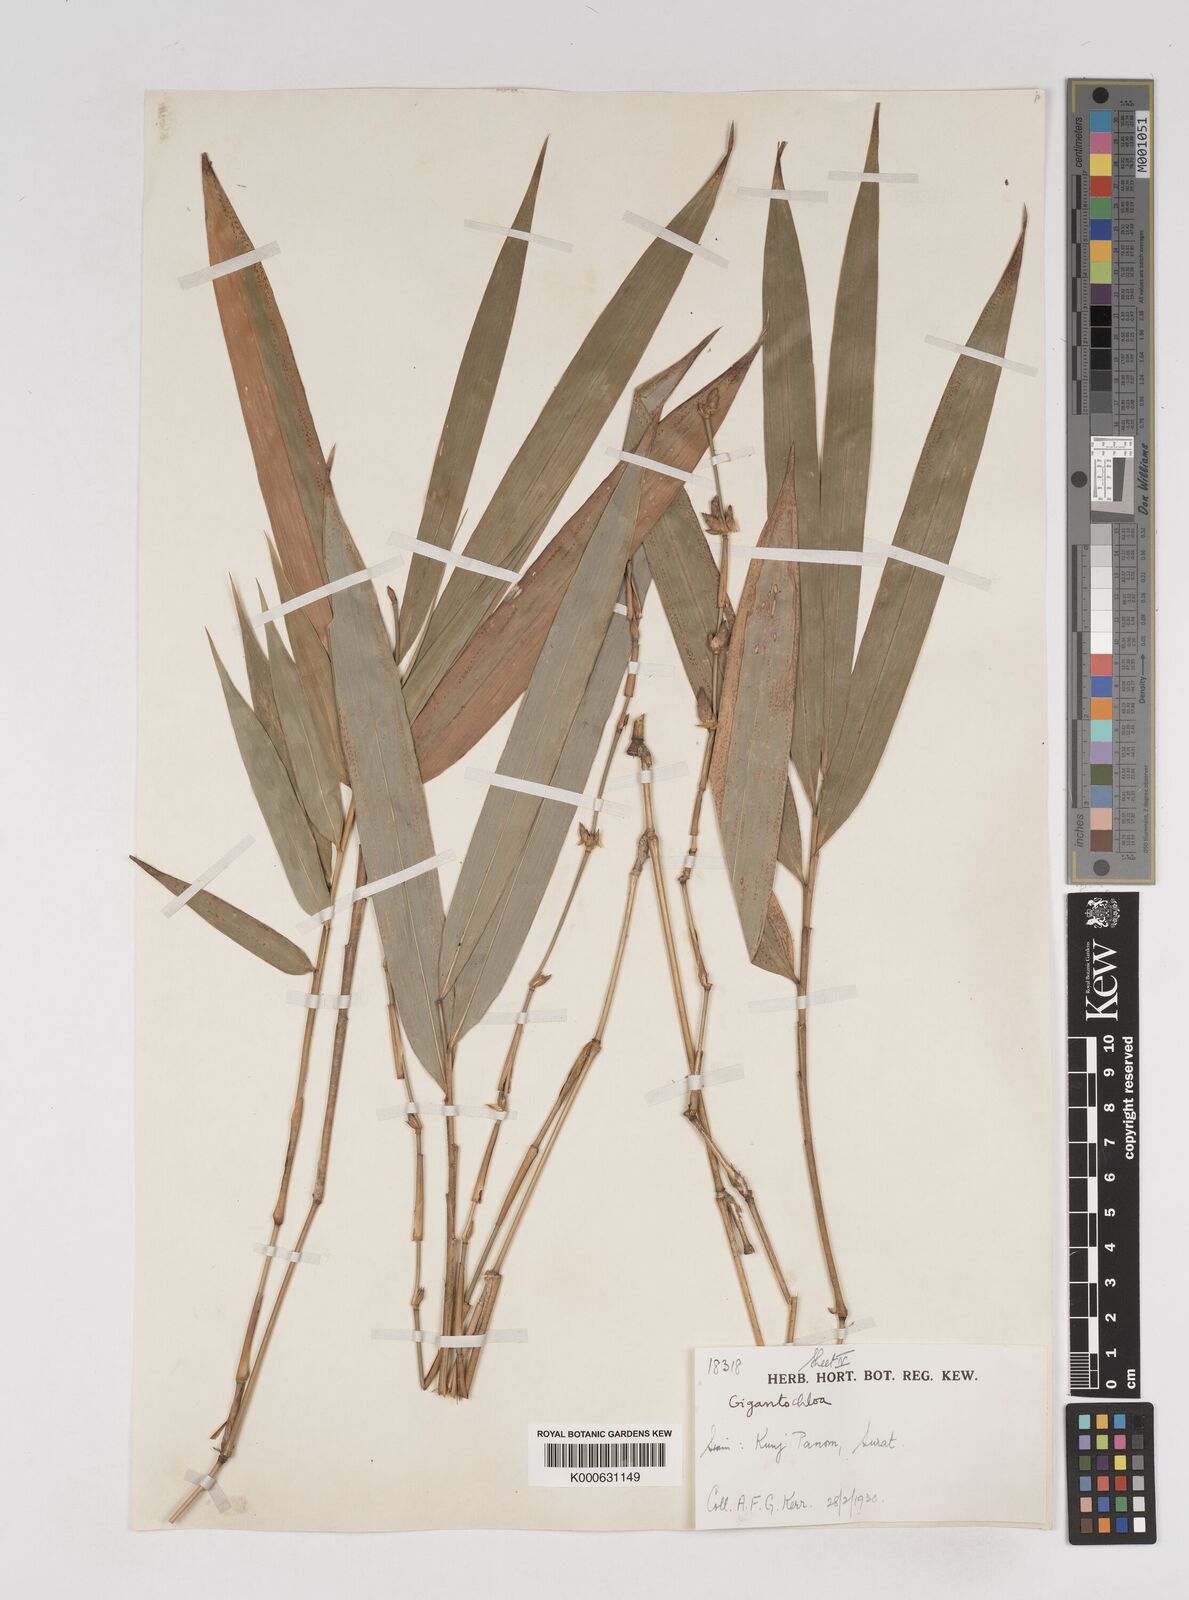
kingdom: Plantae
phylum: Tracheophyta
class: Liliopsida
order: Poales
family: Poaceae
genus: Gigantochloa
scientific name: Gigantochloa
